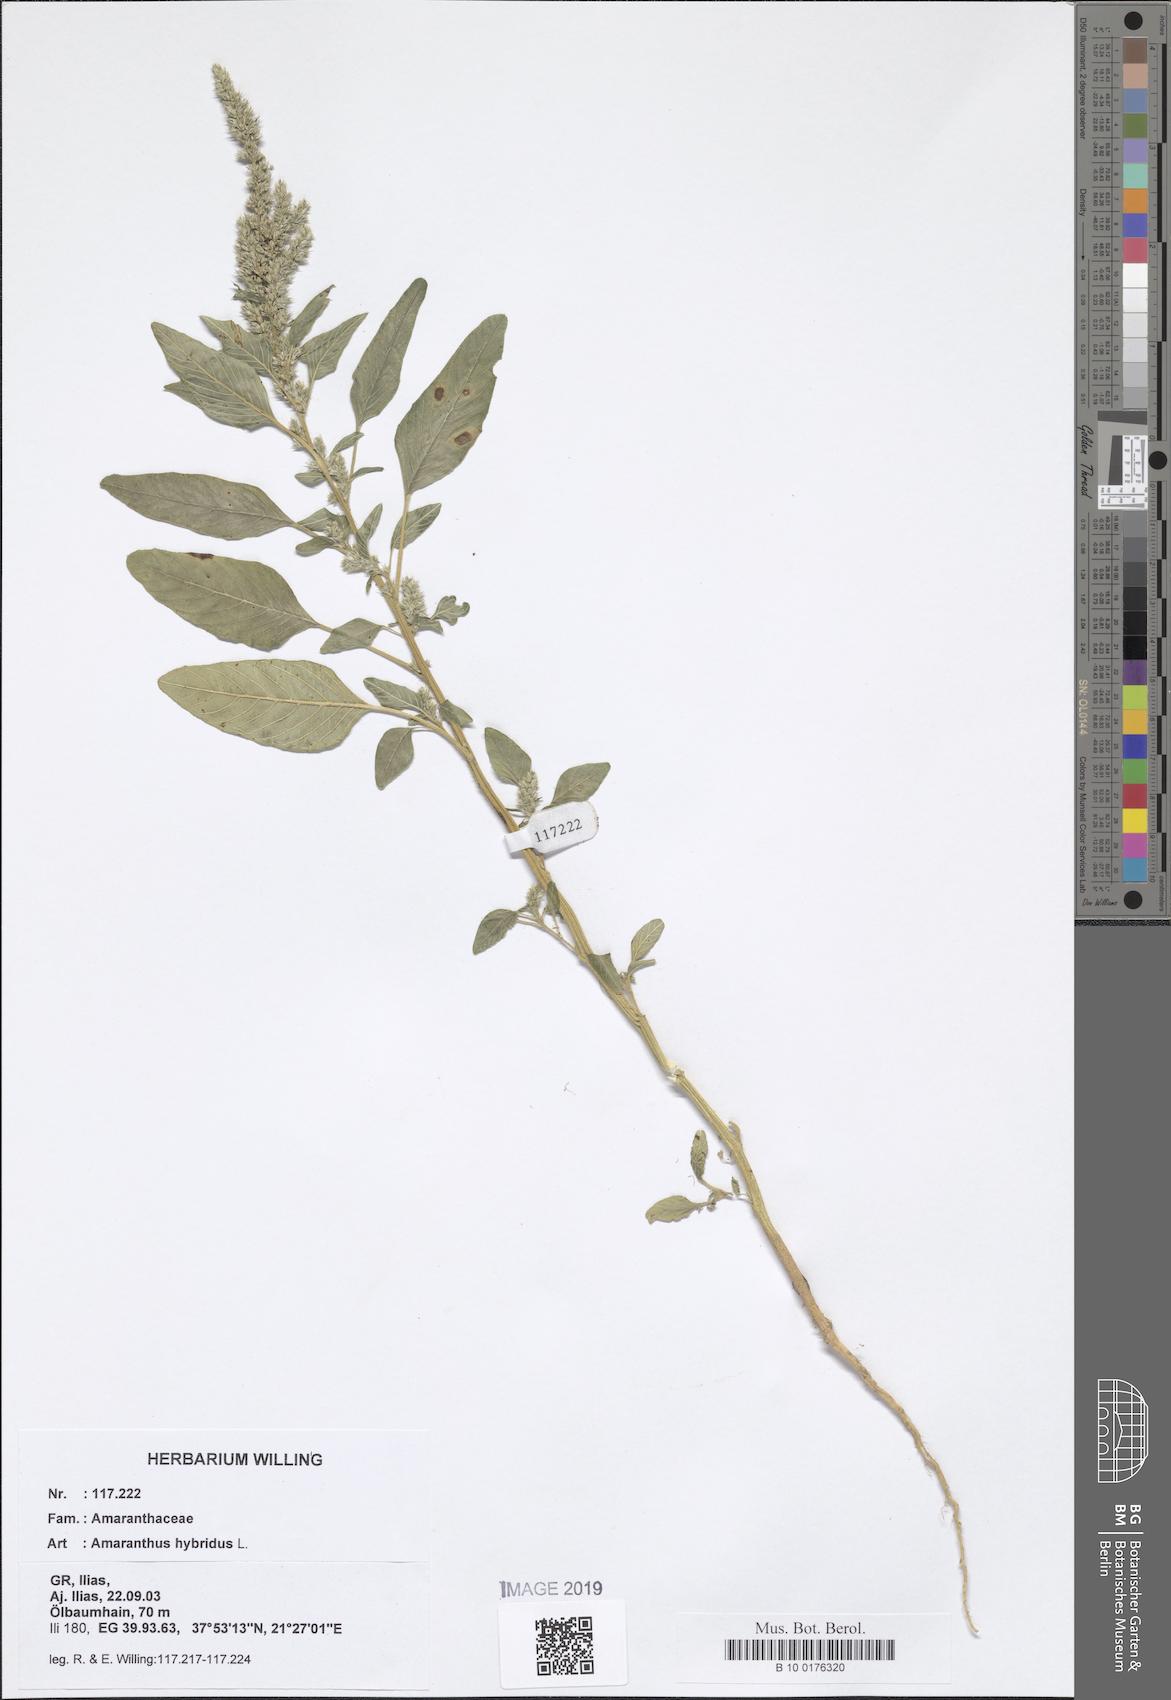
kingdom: Plantae
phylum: Tracheophyta
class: Magnoliopsida
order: Caryophyllales
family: Amaranthaceae
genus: Amaranthus
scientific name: Amaranthus hybridus
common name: Green amaranth
